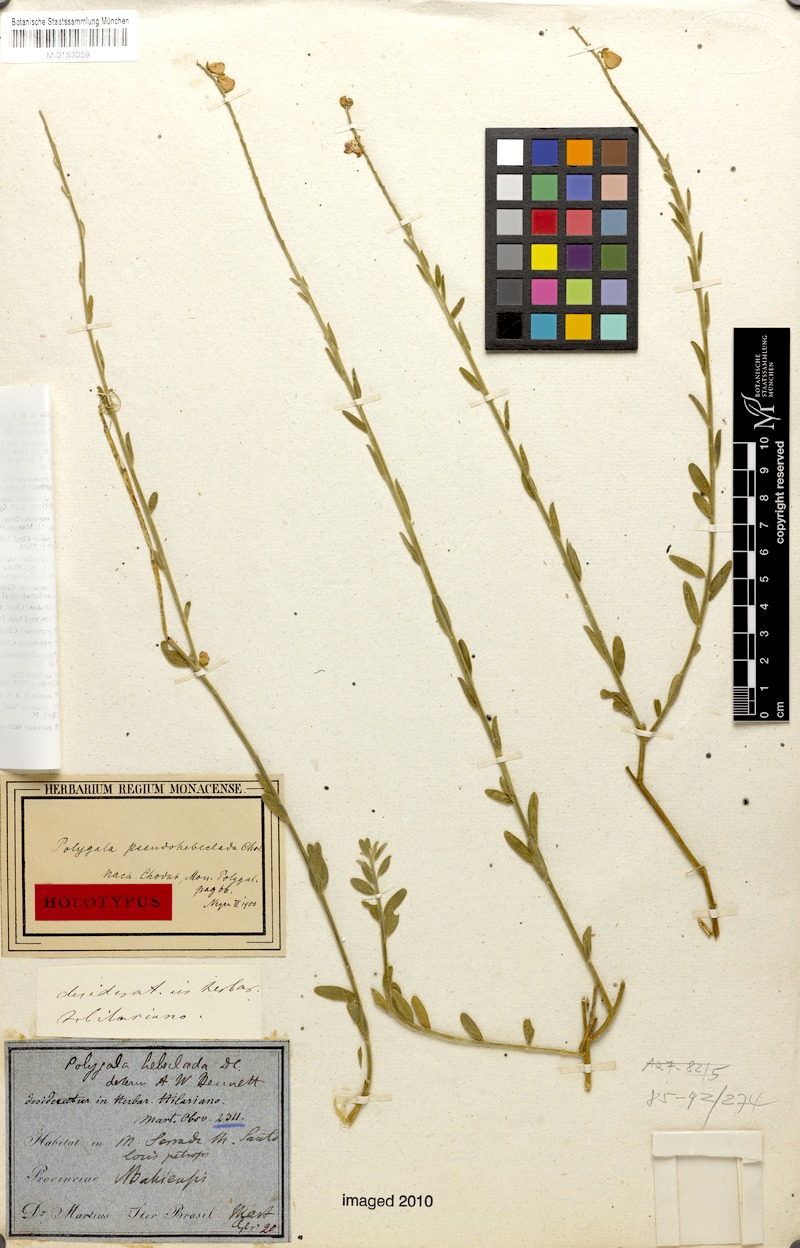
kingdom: Plantae
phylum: Tracheophyta
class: Magnoliopsida
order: Fabales
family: Polygalaceae
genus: Asemeia
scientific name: Asemeia mollis
